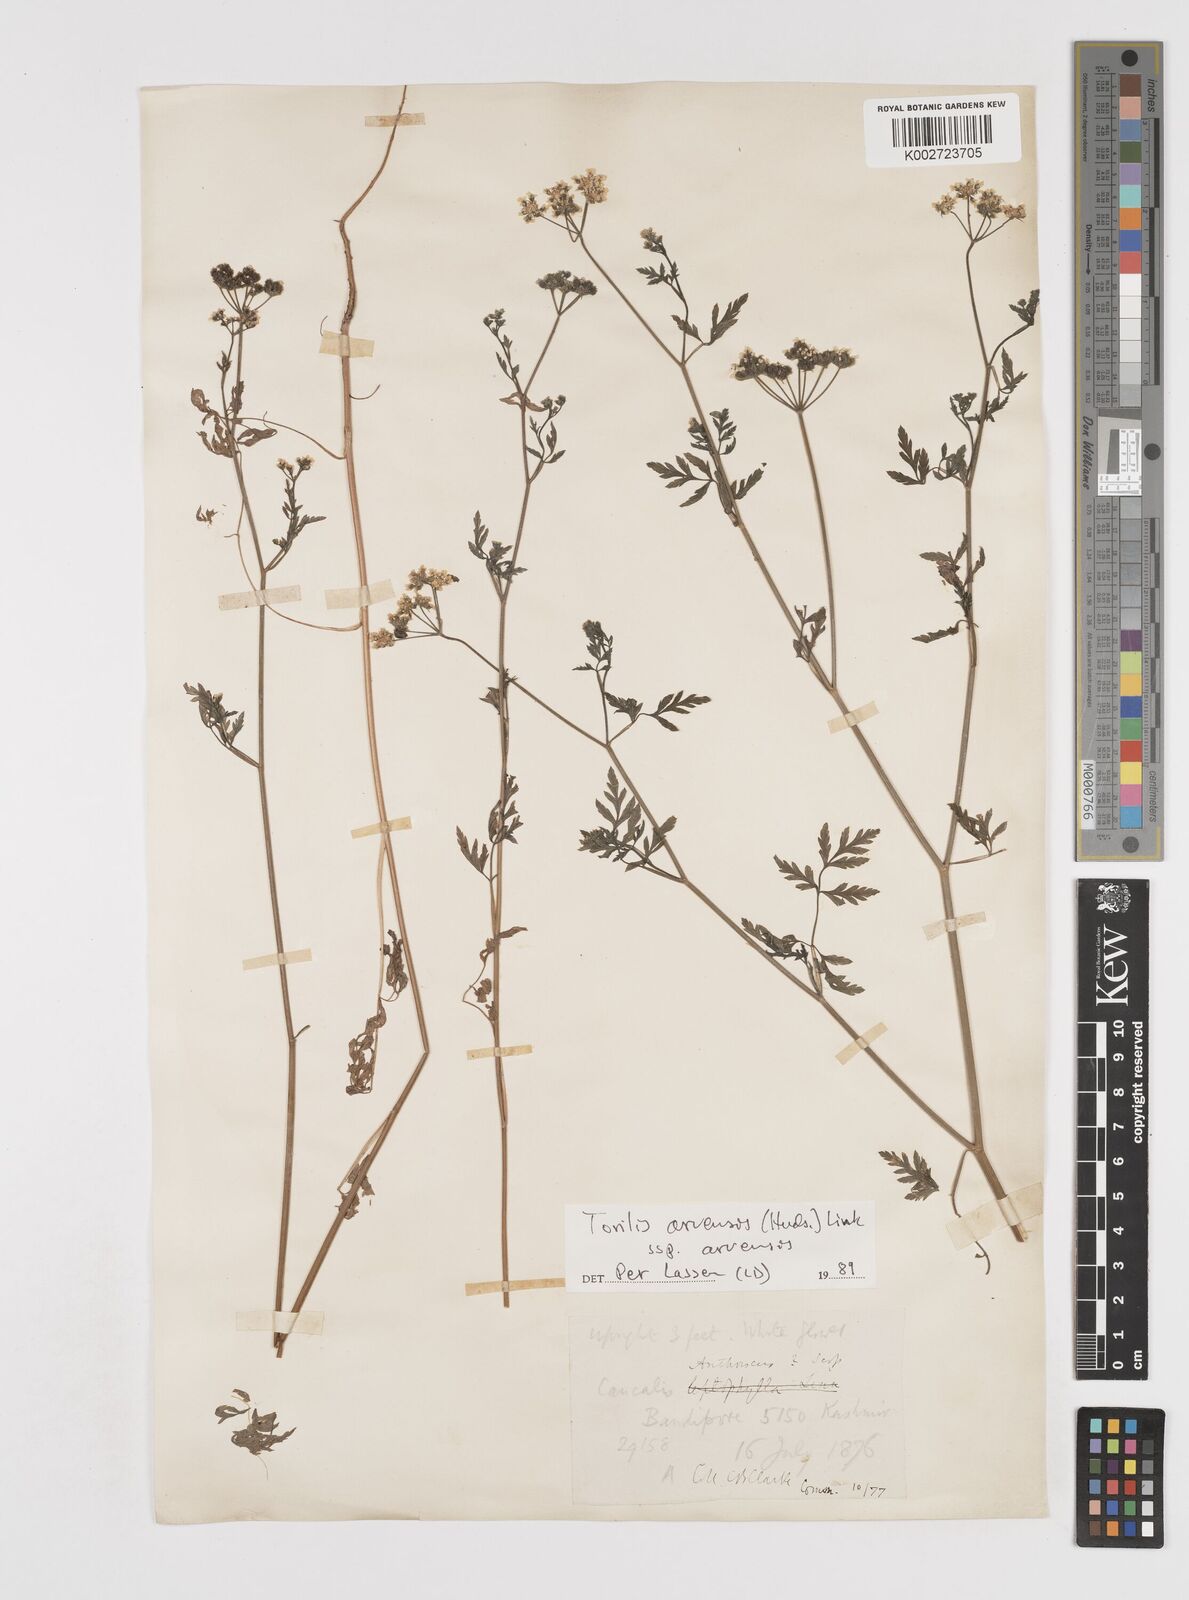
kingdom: Plantae
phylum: Tracheophyta
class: Magnoliopsida
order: Apiales
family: Apiaceae
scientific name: Apiaceae
